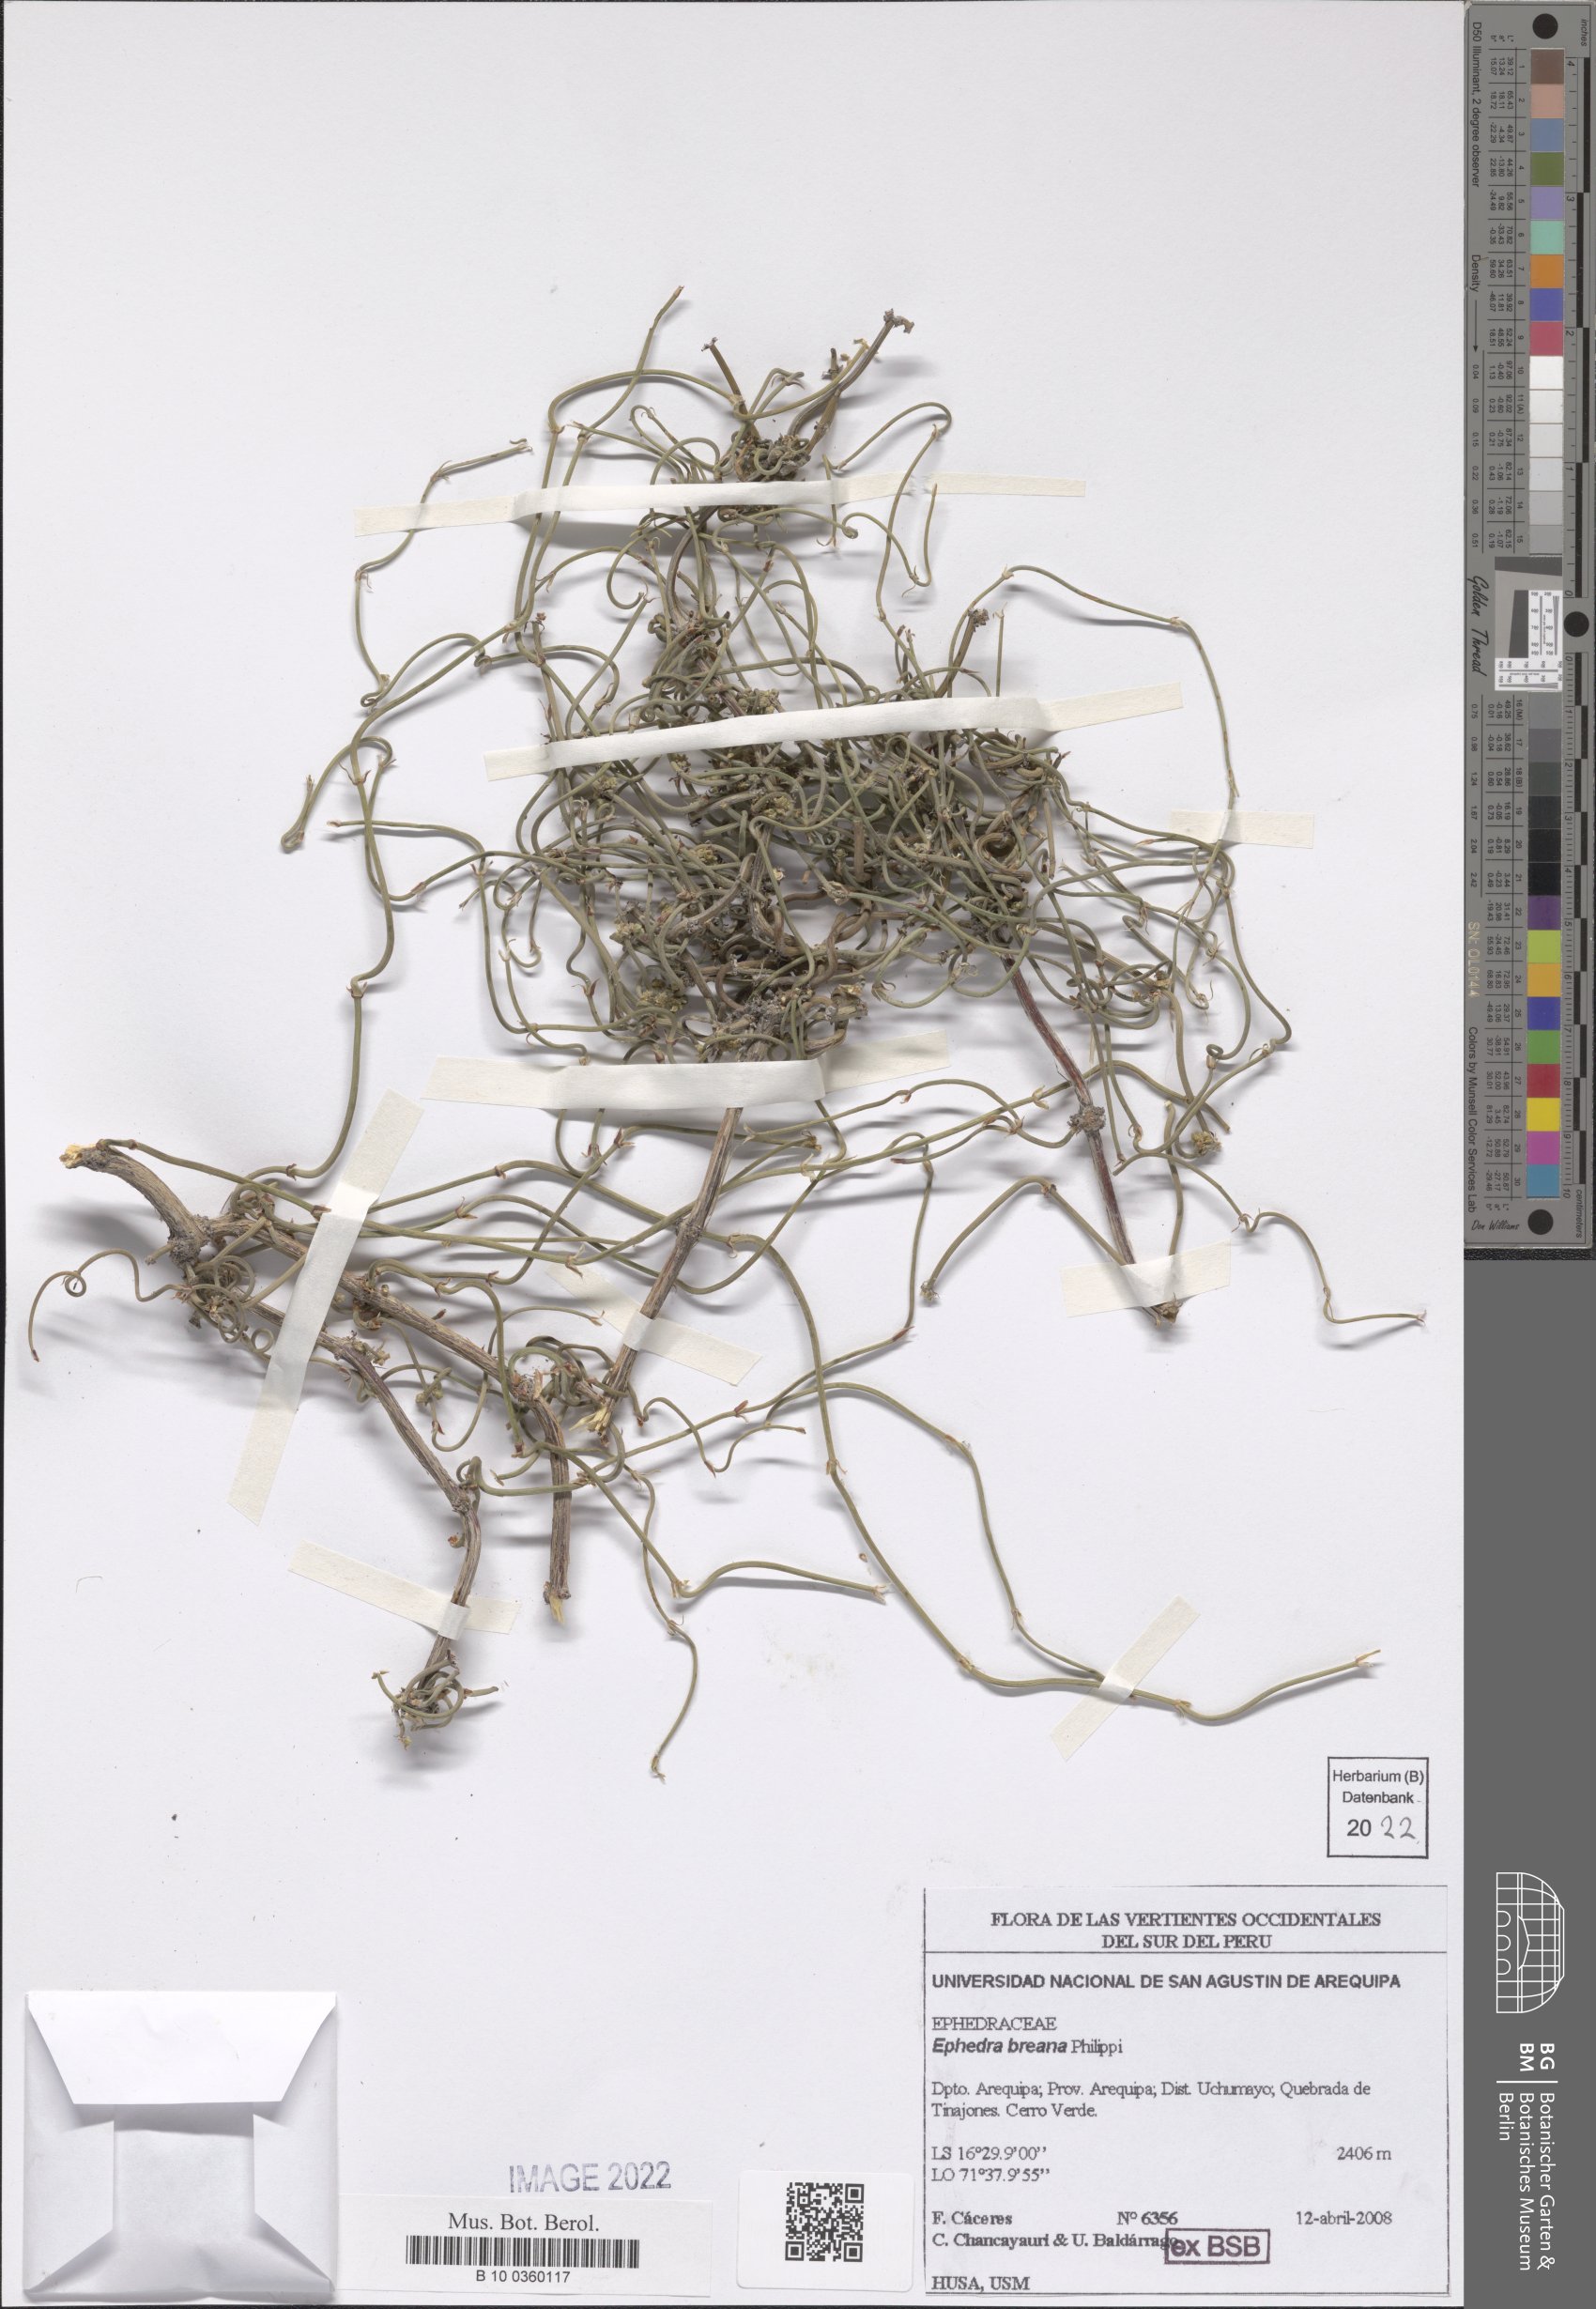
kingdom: Plantae
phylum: Tracheophyta
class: Gnetopsida
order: Ephedrales
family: Ephedraceae
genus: Ephedra
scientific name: Ephedra breana
